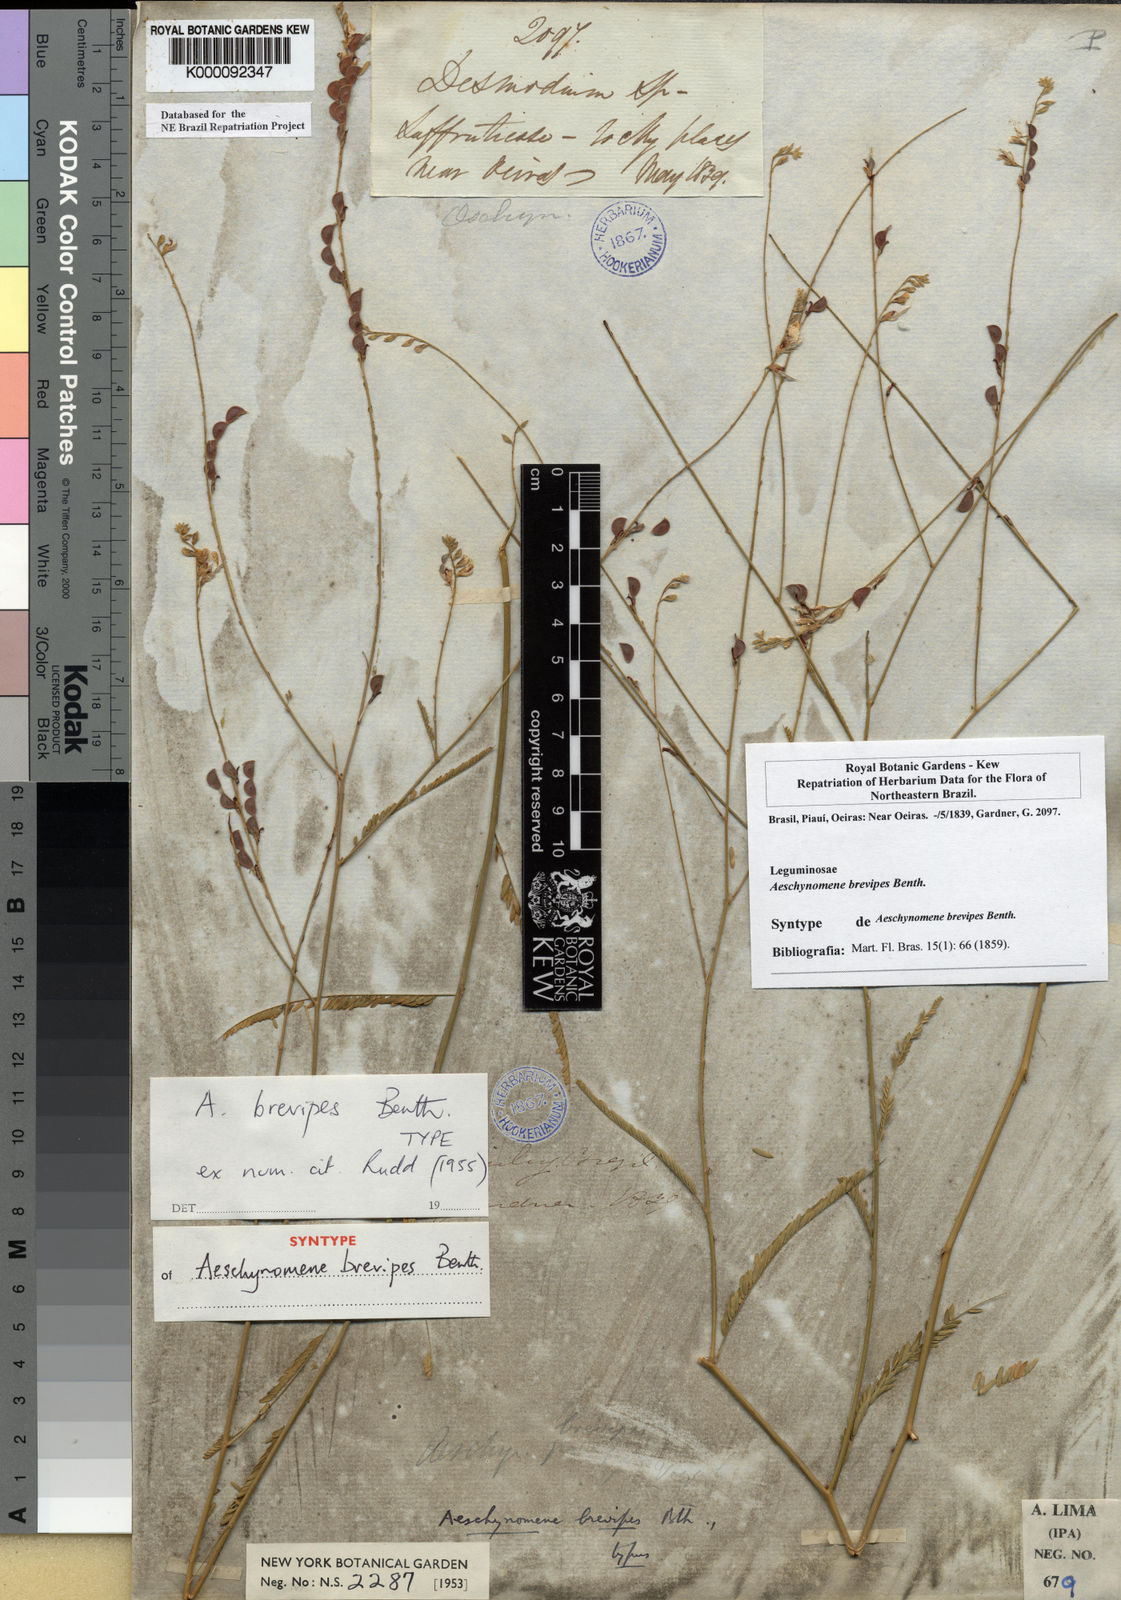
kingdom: Plantae
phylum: Tracheophyta
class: Magnoliopsida
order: Fabales
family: Fabaceae
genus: Ctenodon
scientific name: Ctenodon brevipes
